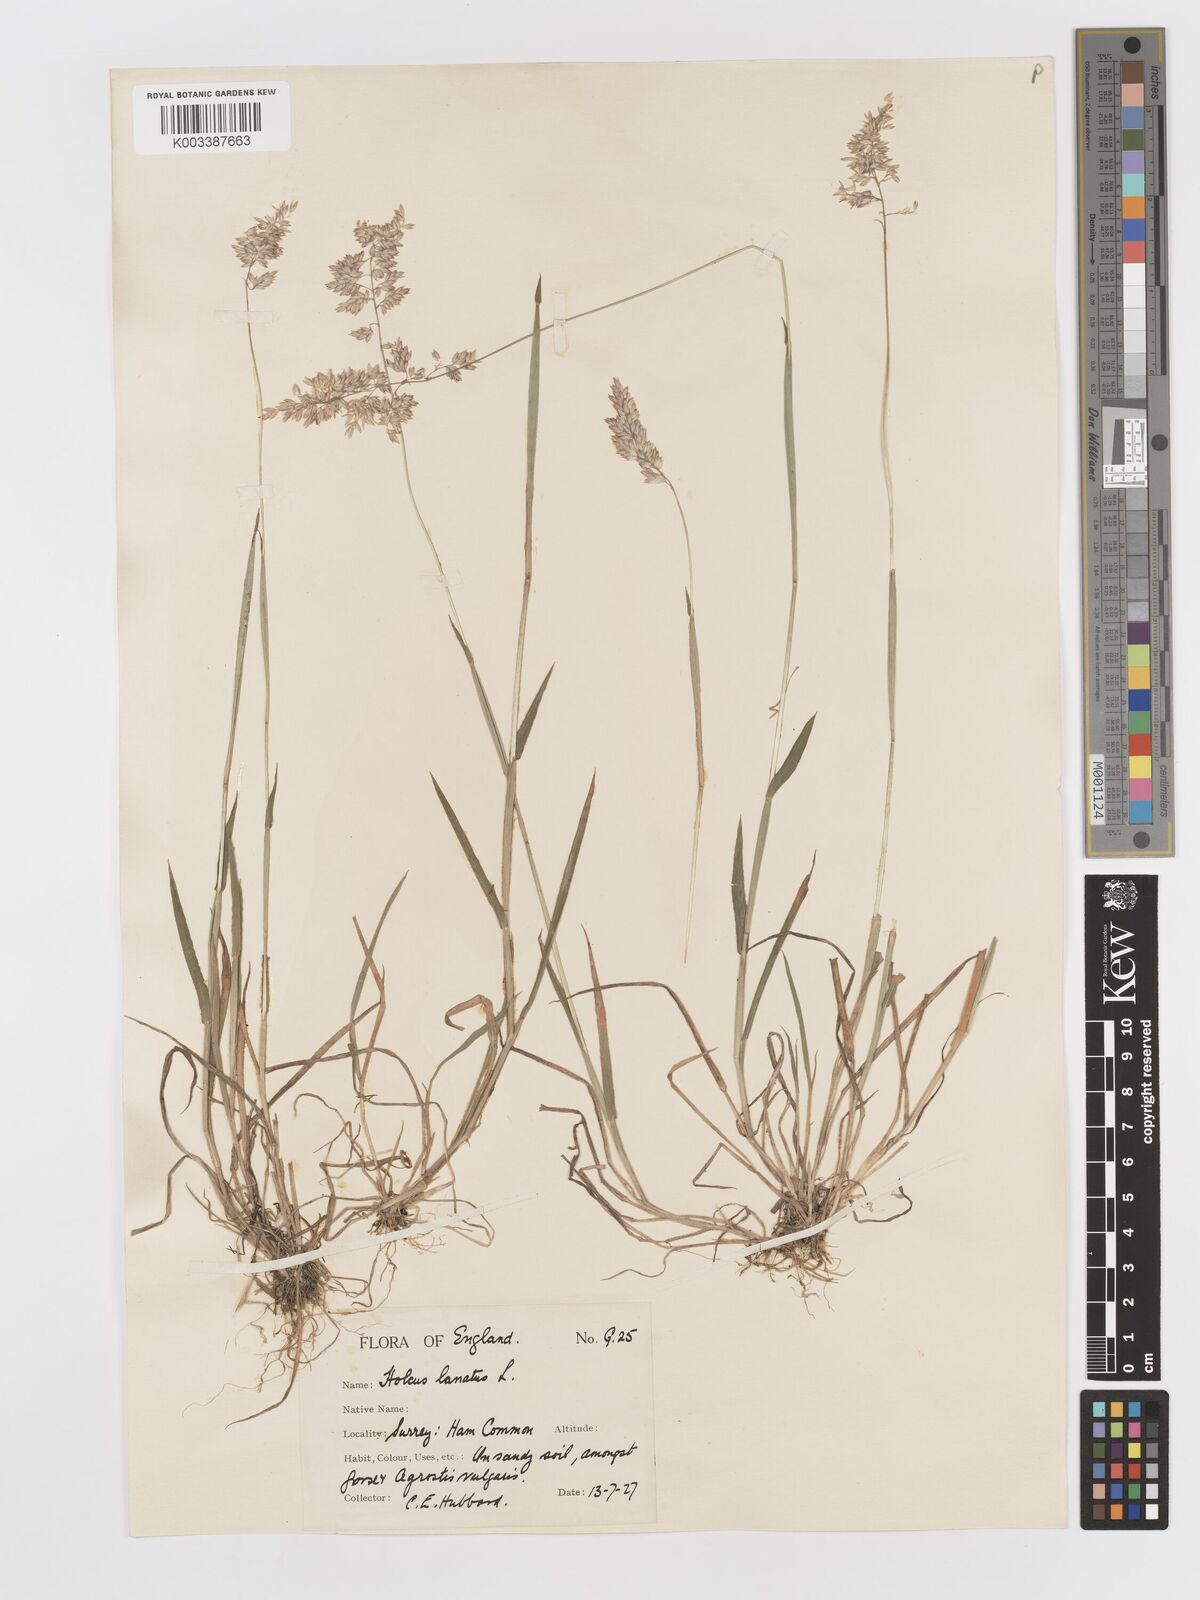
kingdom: Plantae
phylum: Tracheophyta
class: Liliopsida
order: Poales
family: Poaceae
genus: Holcus
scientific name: Holcus lanatus
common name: Yorkshire-fog
